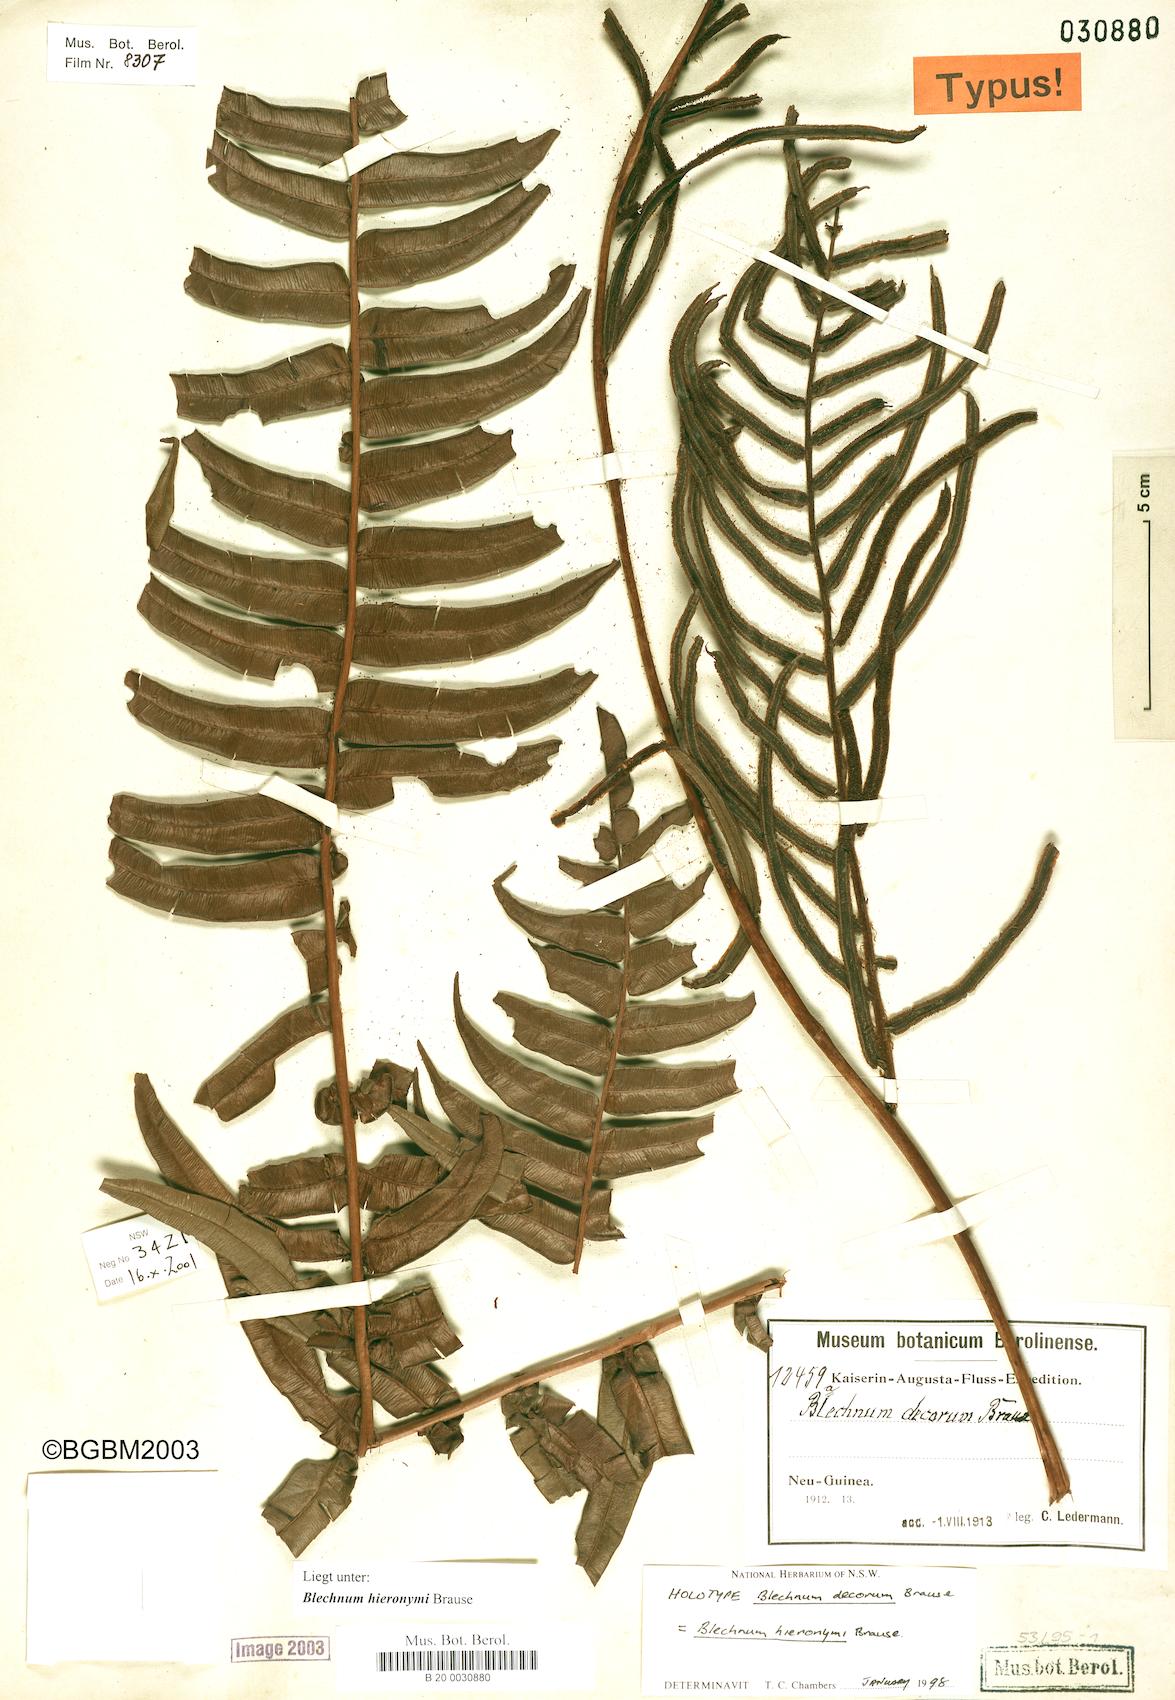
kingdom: Plantae
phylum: Tracheophyta
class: Polypodiopsida
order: Polypodiales
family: Blechnaceae
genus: Parablechnum
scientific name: Parablechnum hieronymi
